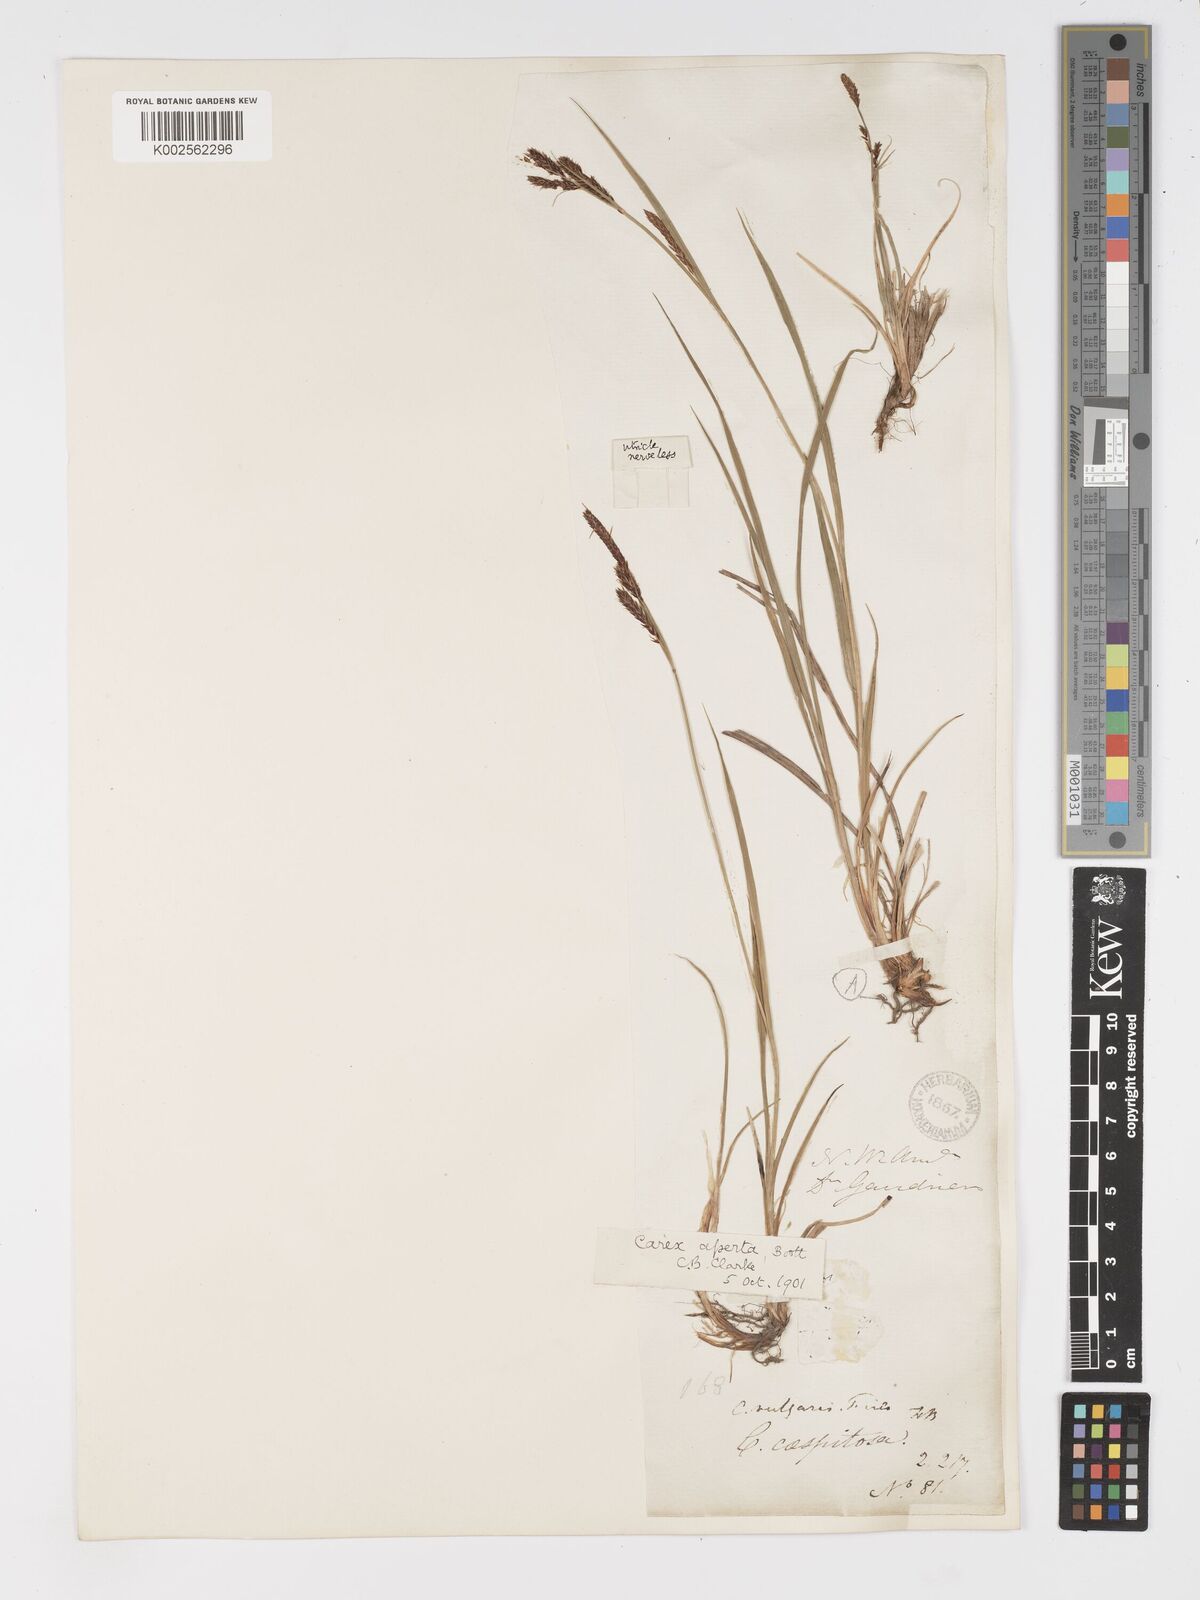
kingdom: Plantae
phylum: Tracheophyta
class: Liliopsida
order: Poales
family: Cyperaceae
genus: Carex
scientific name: Carex aperta
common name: Columbia sedge
